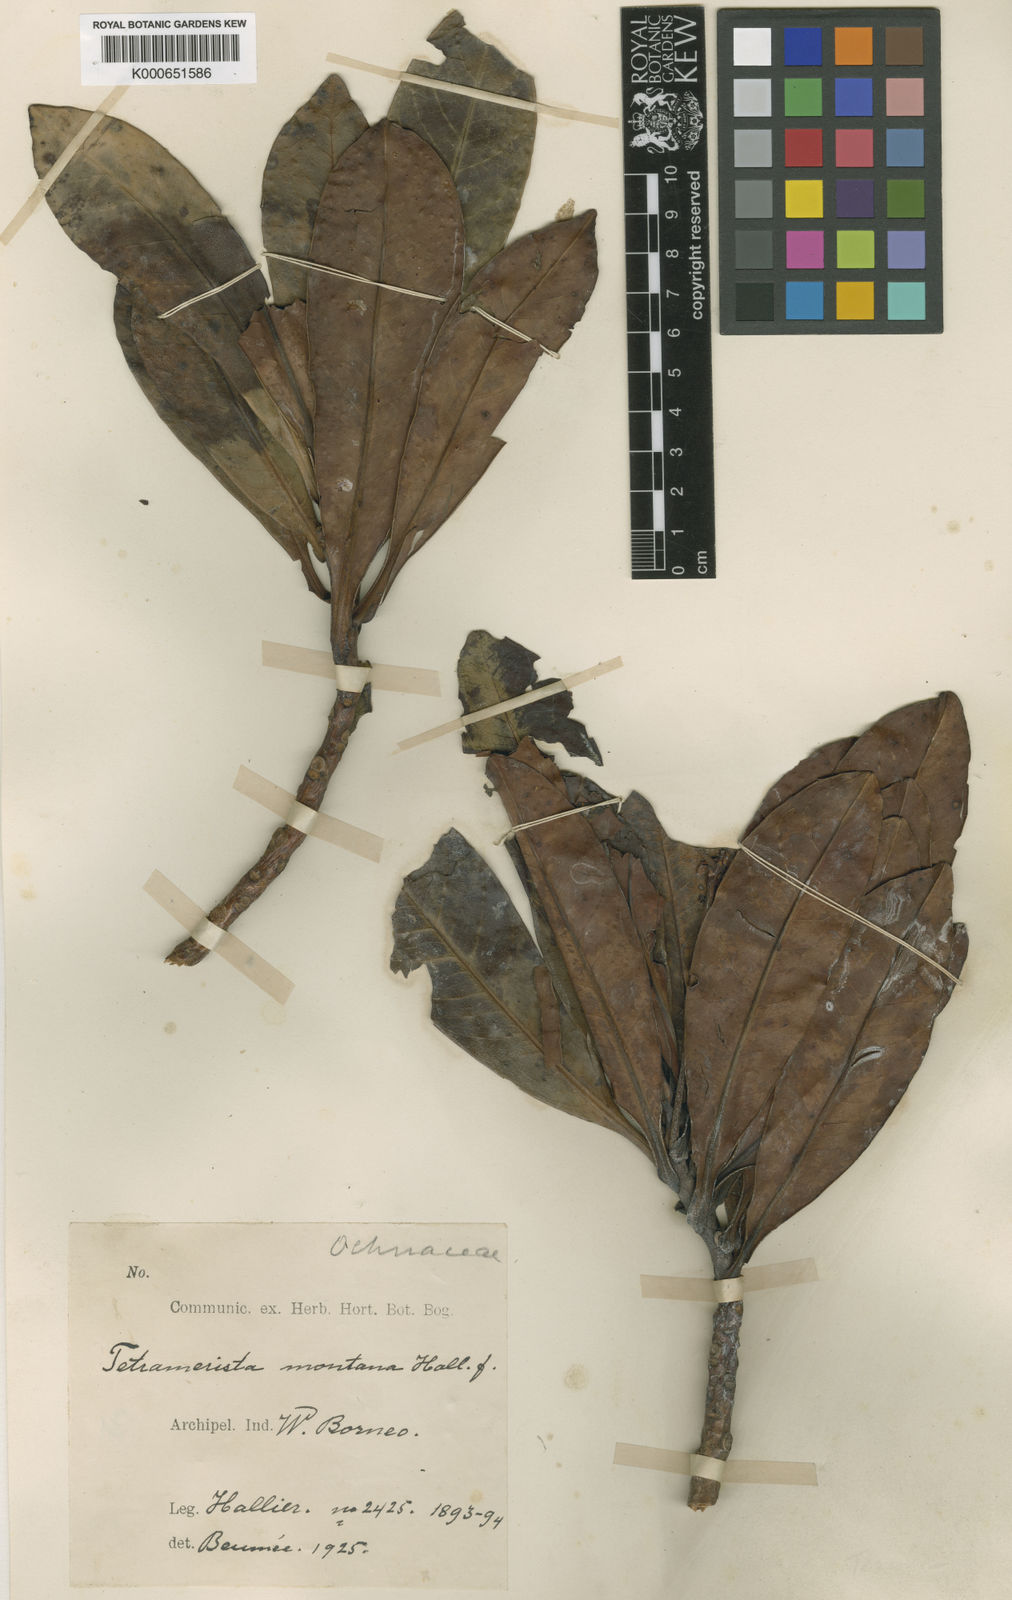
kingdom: Plantae
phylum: Tracheophyta
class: Magnoliopsida
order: Ericales
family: Tetrameristaceae
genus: Tetramerista
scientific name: Tetramerista glabra
